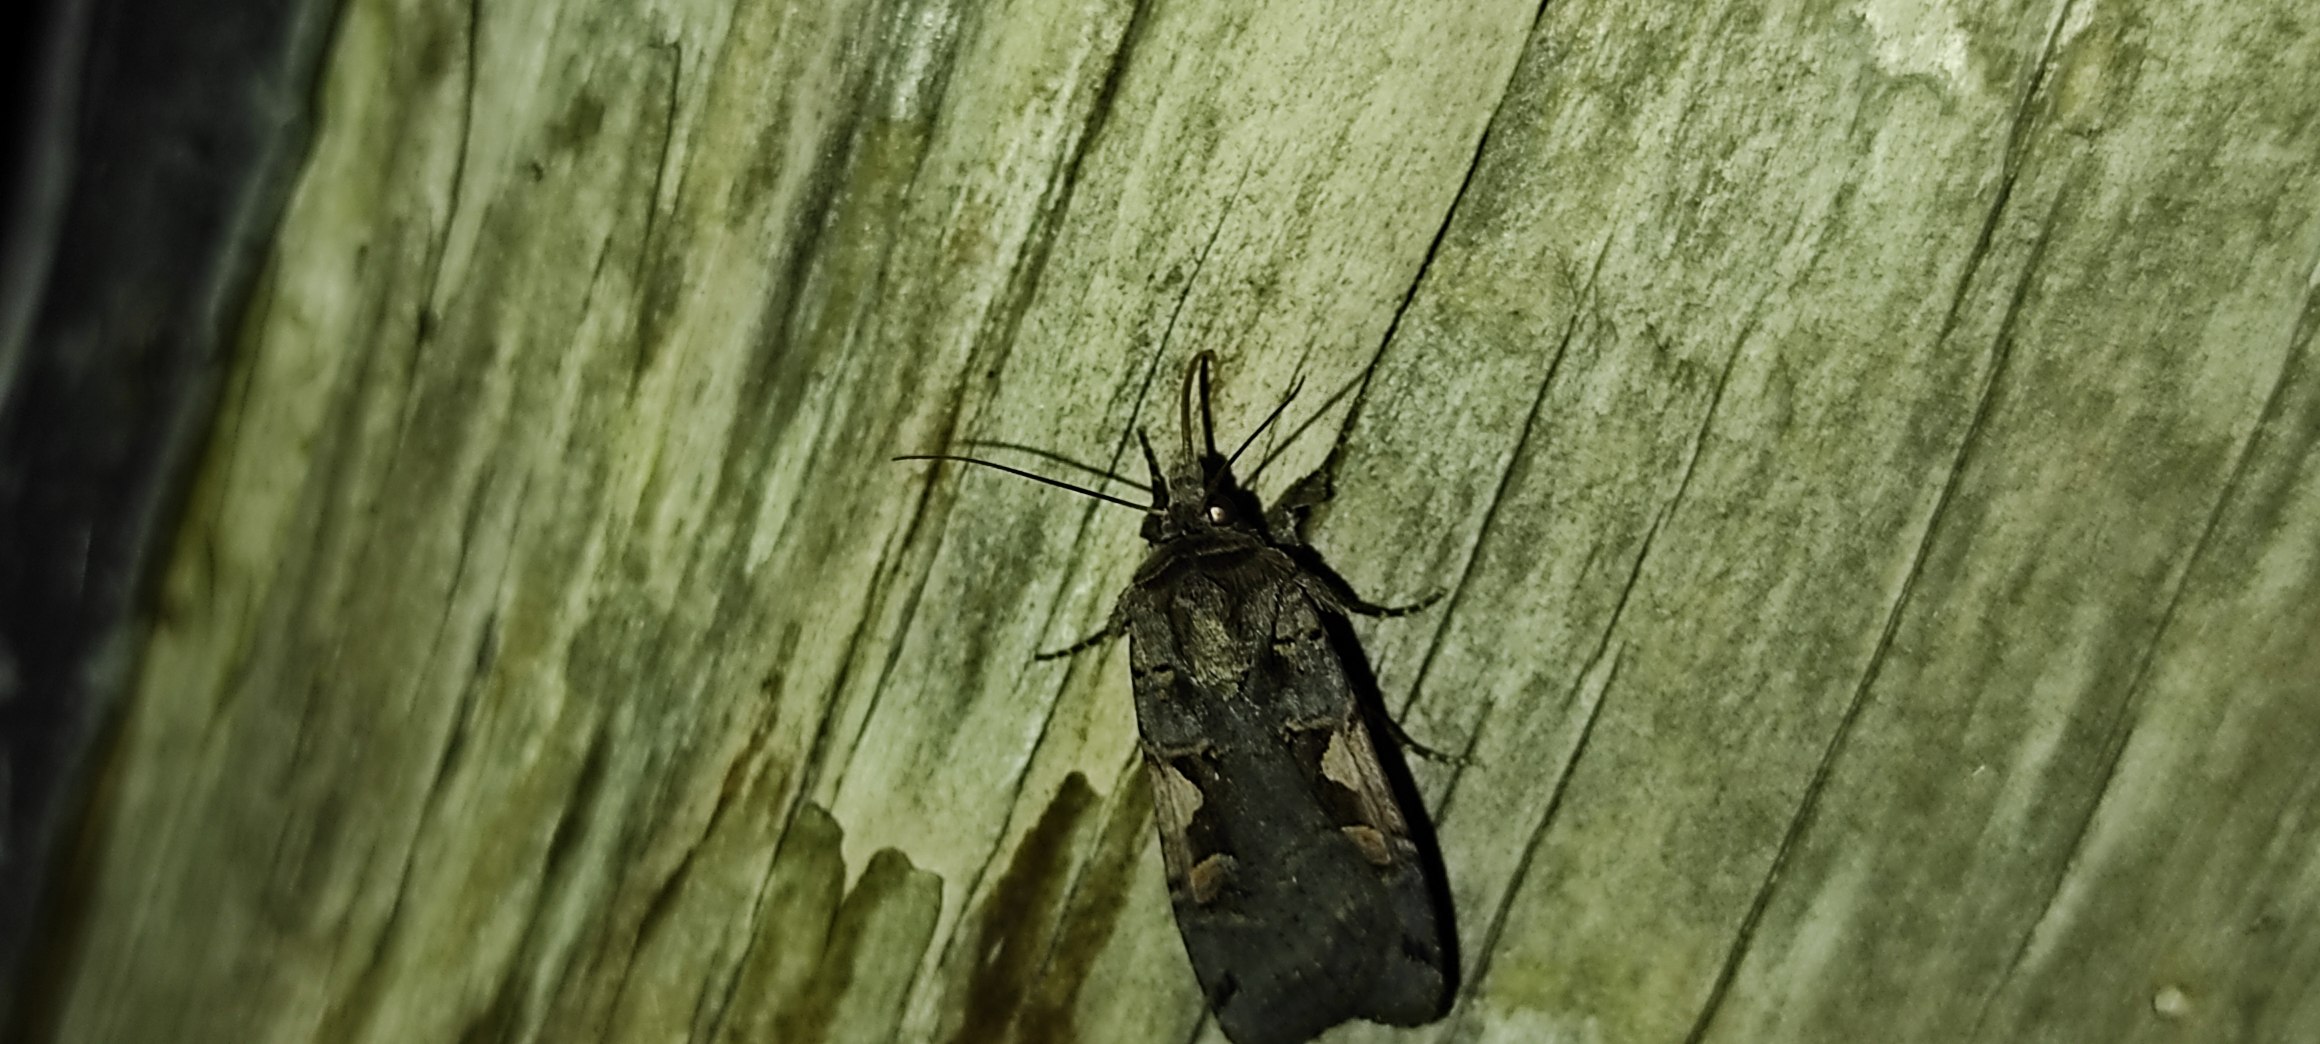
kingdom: Animalia
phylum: Arthropoda
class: Insecta
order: Lepidoptera
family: Noctuidae
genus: Xestia
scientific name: Xestia c-nigrum
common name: Det sorte c
